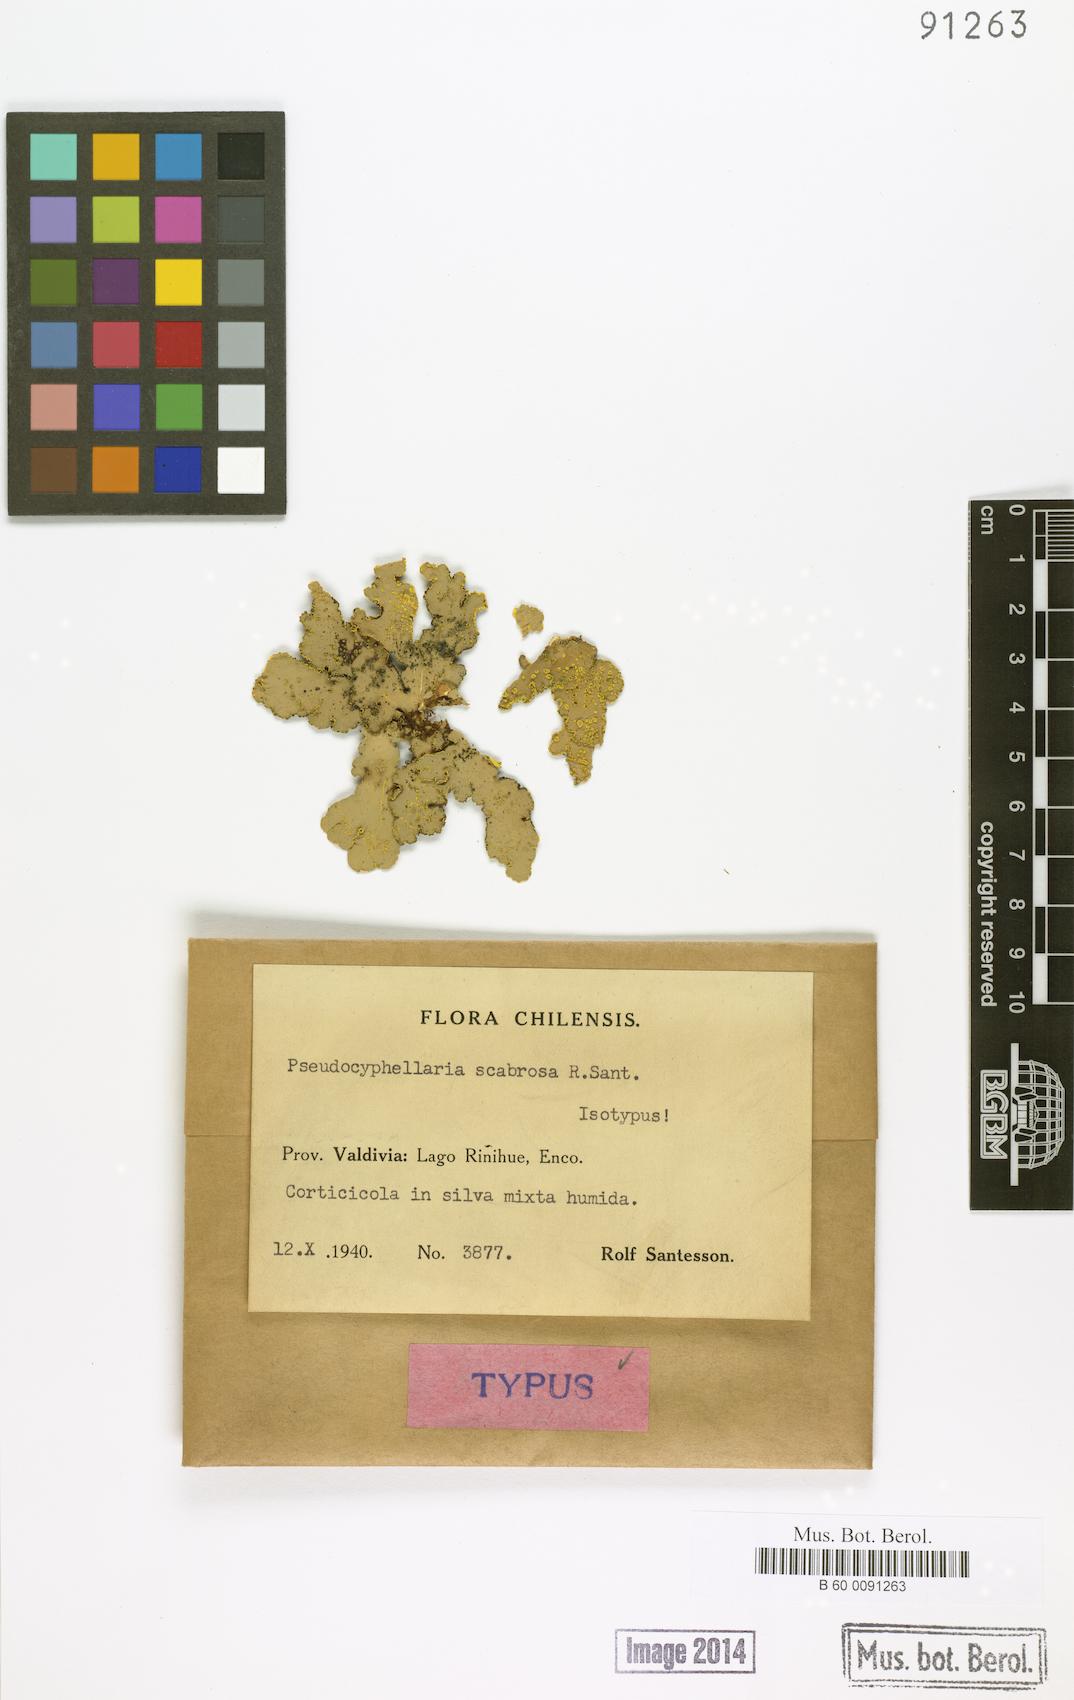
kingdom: Fungi
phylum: Ascomycota
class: Lecanoromycetes
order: Peltigerales
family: Lobariaceae
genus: Podostictina
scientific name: Podostictina scabrosa
